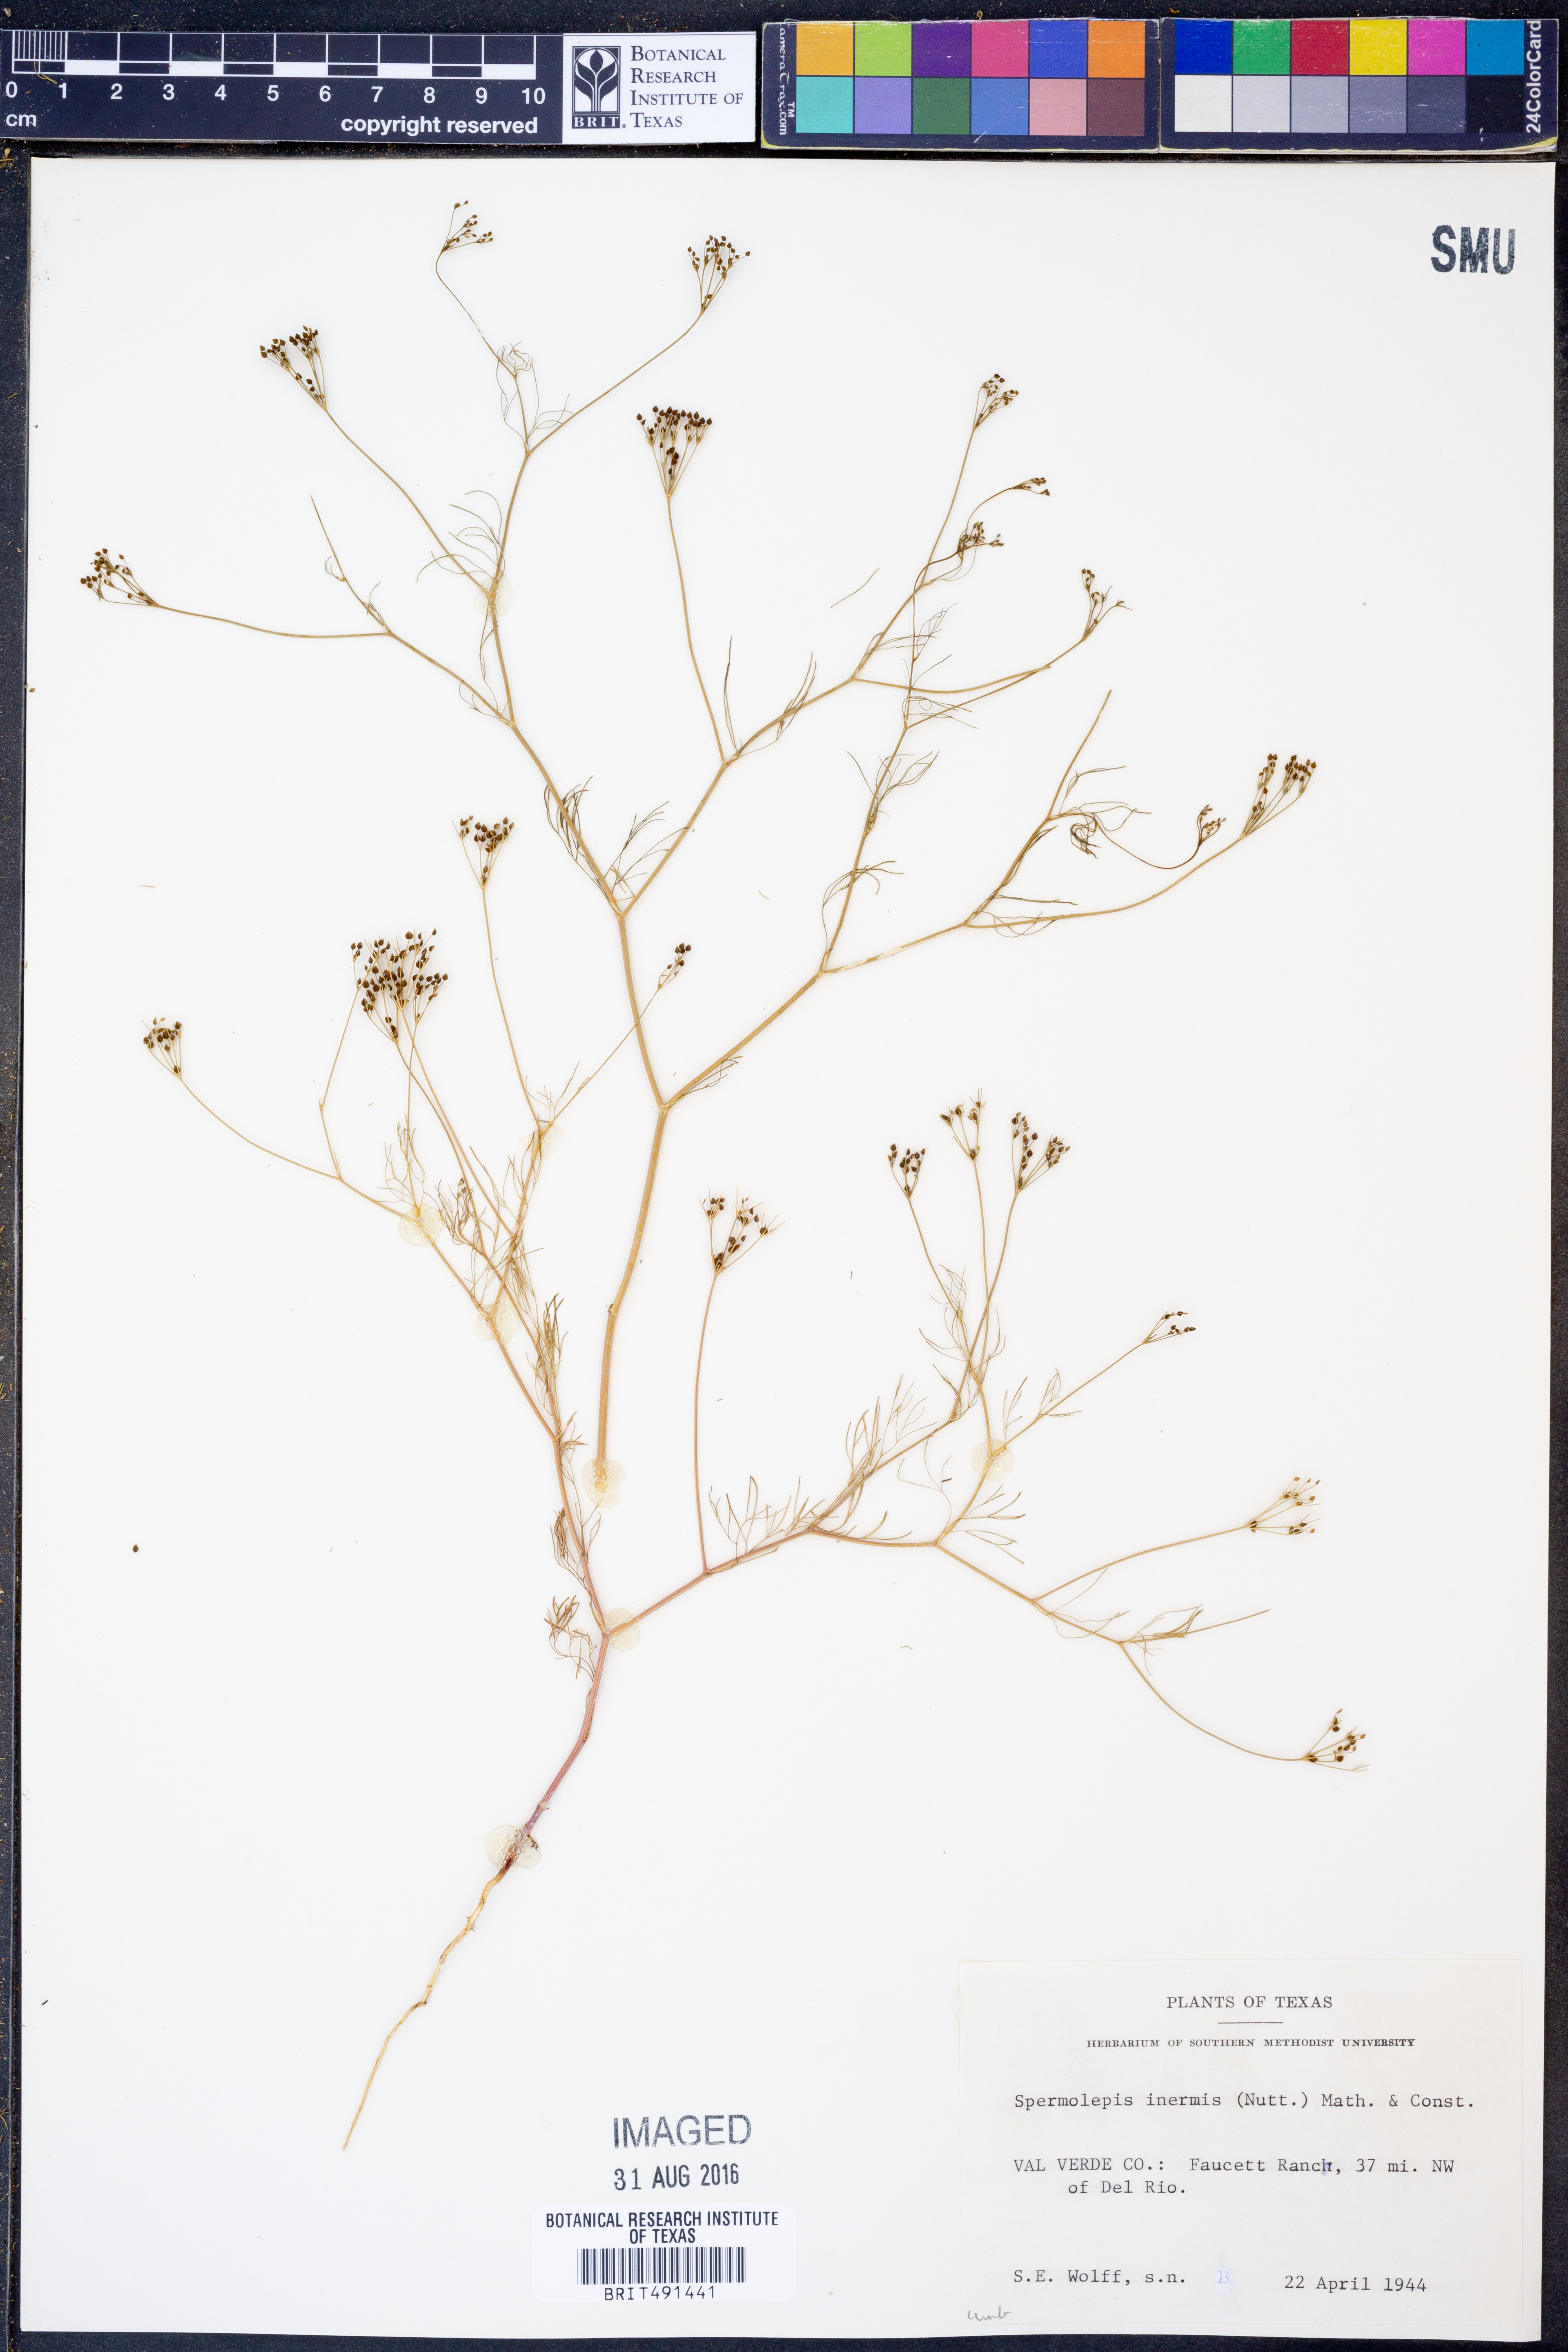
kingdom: Plantae
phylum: Tracheophyta
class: Magnoliopsida
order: Apiales
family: Apiaceae
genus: Spermolepis
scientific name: Spermolepis inermis
